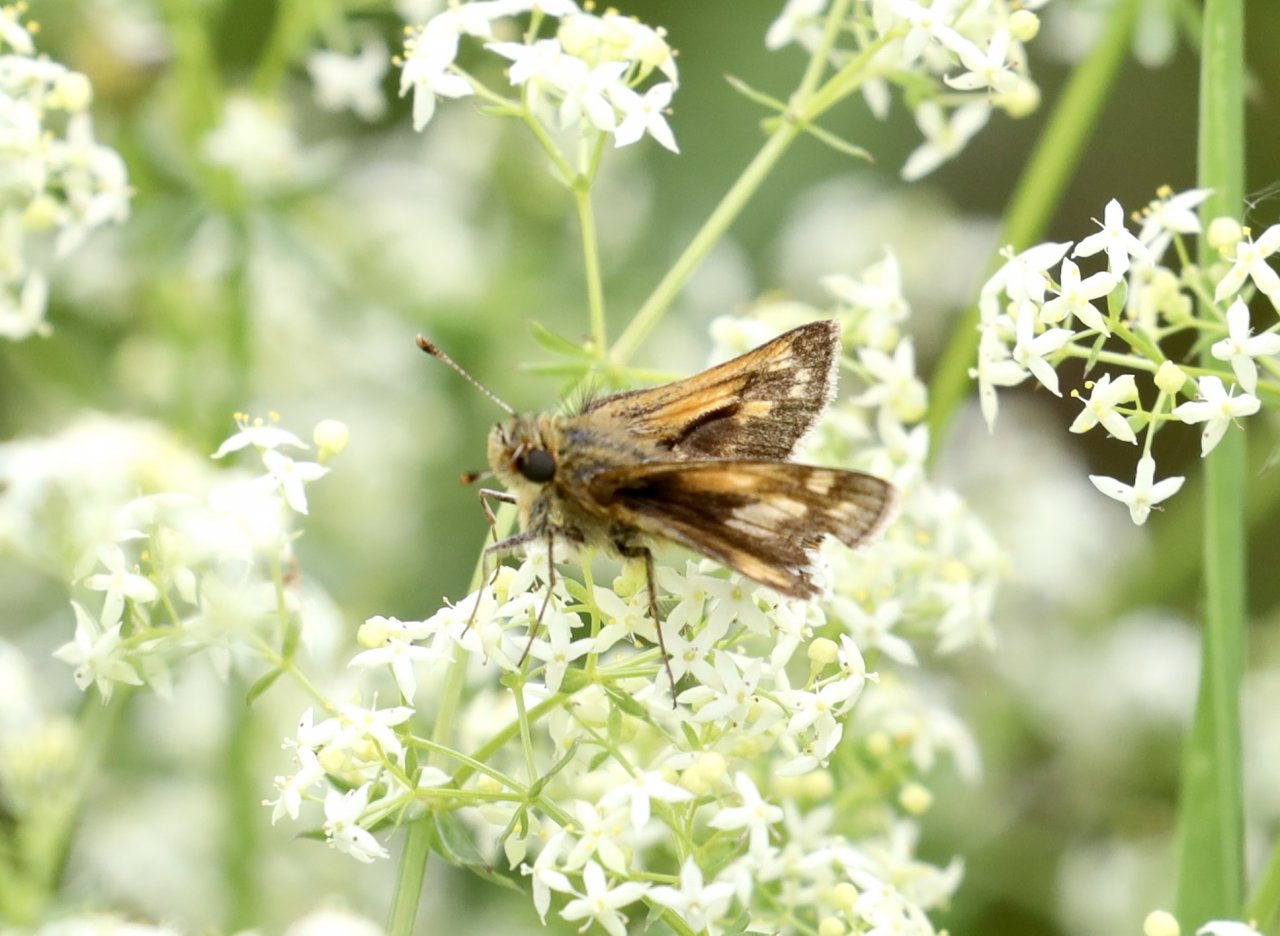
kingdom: Animalia
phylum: Arthropoda
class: Insecta
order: Lepidoptera
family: Hesperiidae
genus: Polites
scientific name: Polites coras
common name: Peck's Skipper
